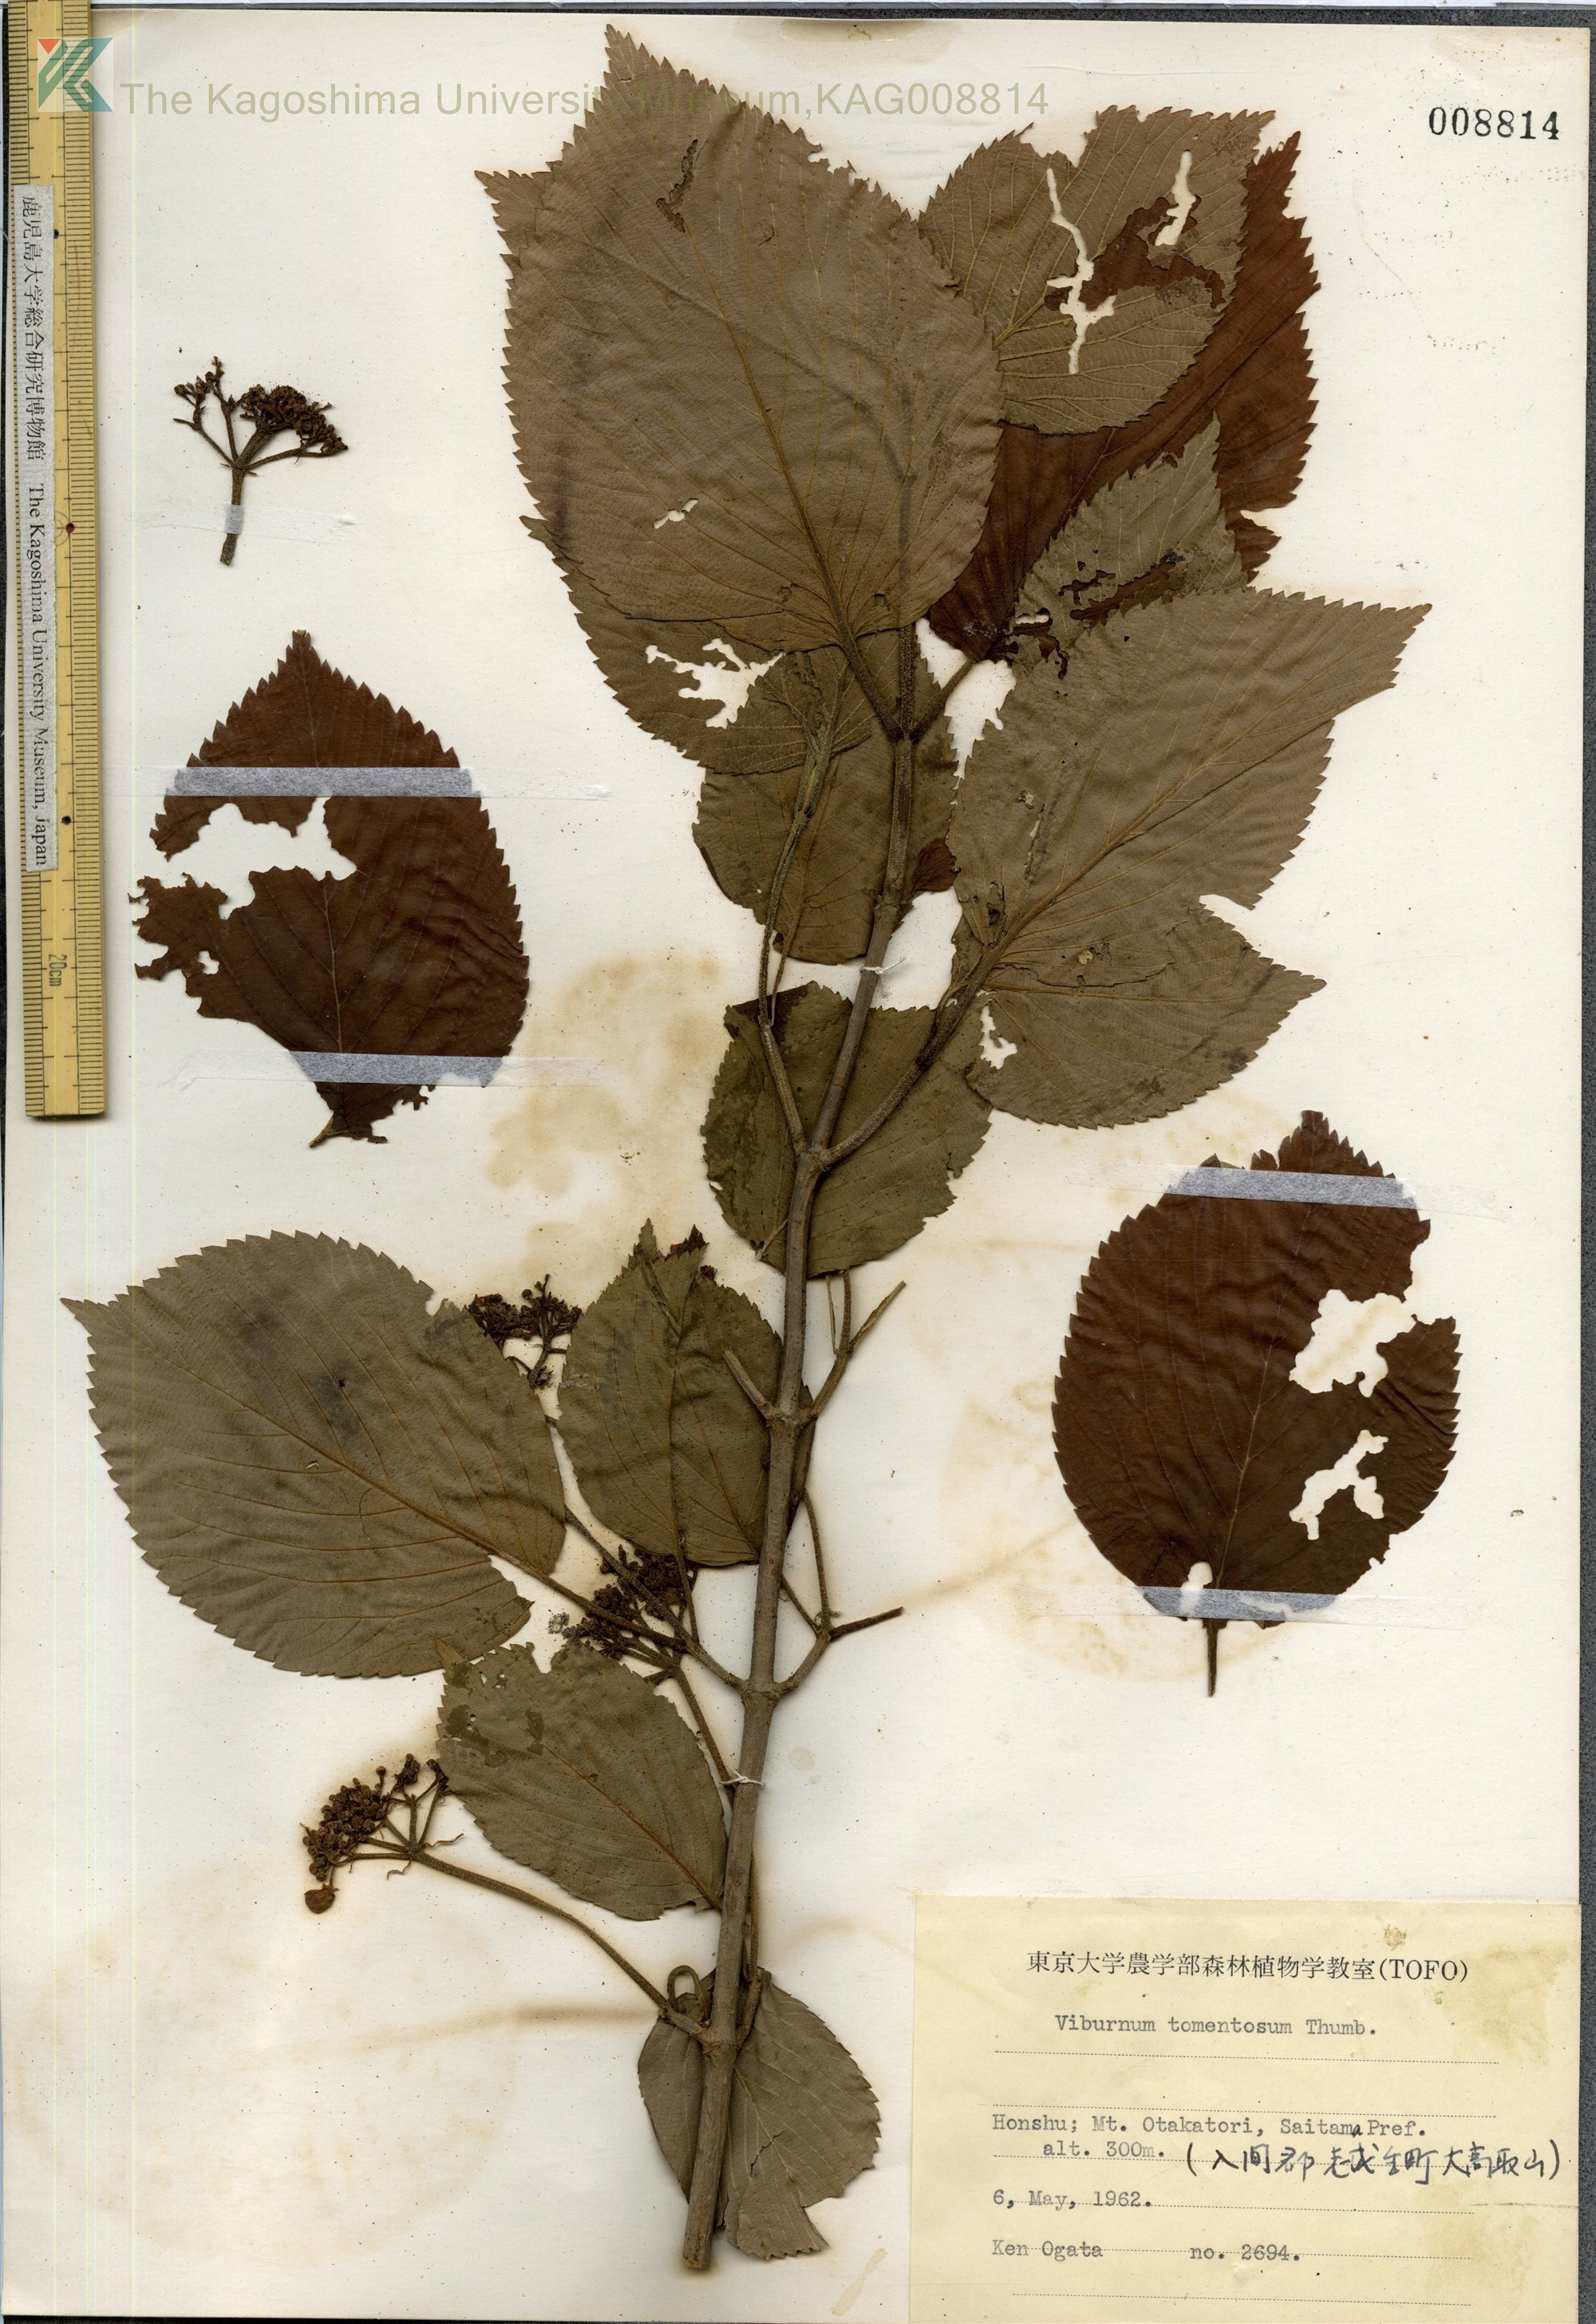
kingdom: Plantae
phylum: Tracheophyta
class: Magnoliopsida
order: Dipsacales
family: Viburnaceae
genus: Viburnum
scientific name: Viburnum plicatum
